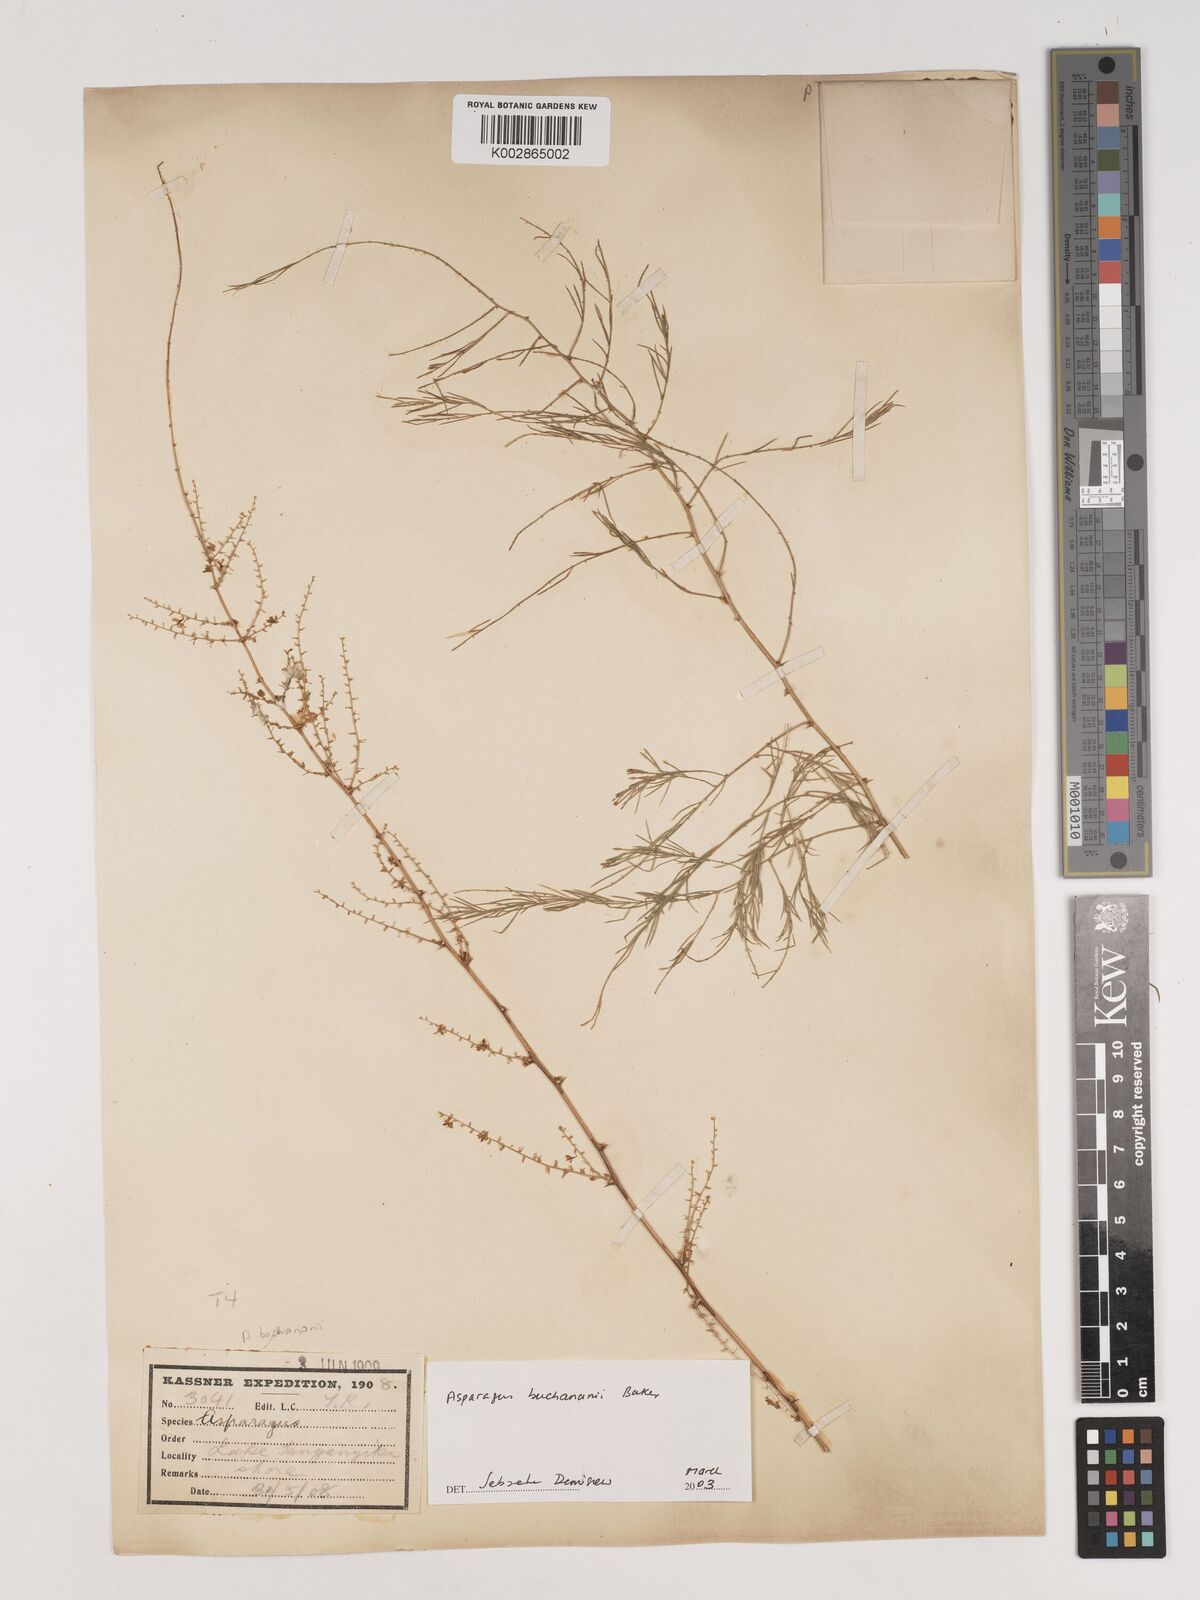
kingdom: Plantae
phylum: Tracheophyta
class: Liliopsida
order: Asparagales
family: Asparagaceae
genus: Asparagus
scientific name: Asparagus buchananii
